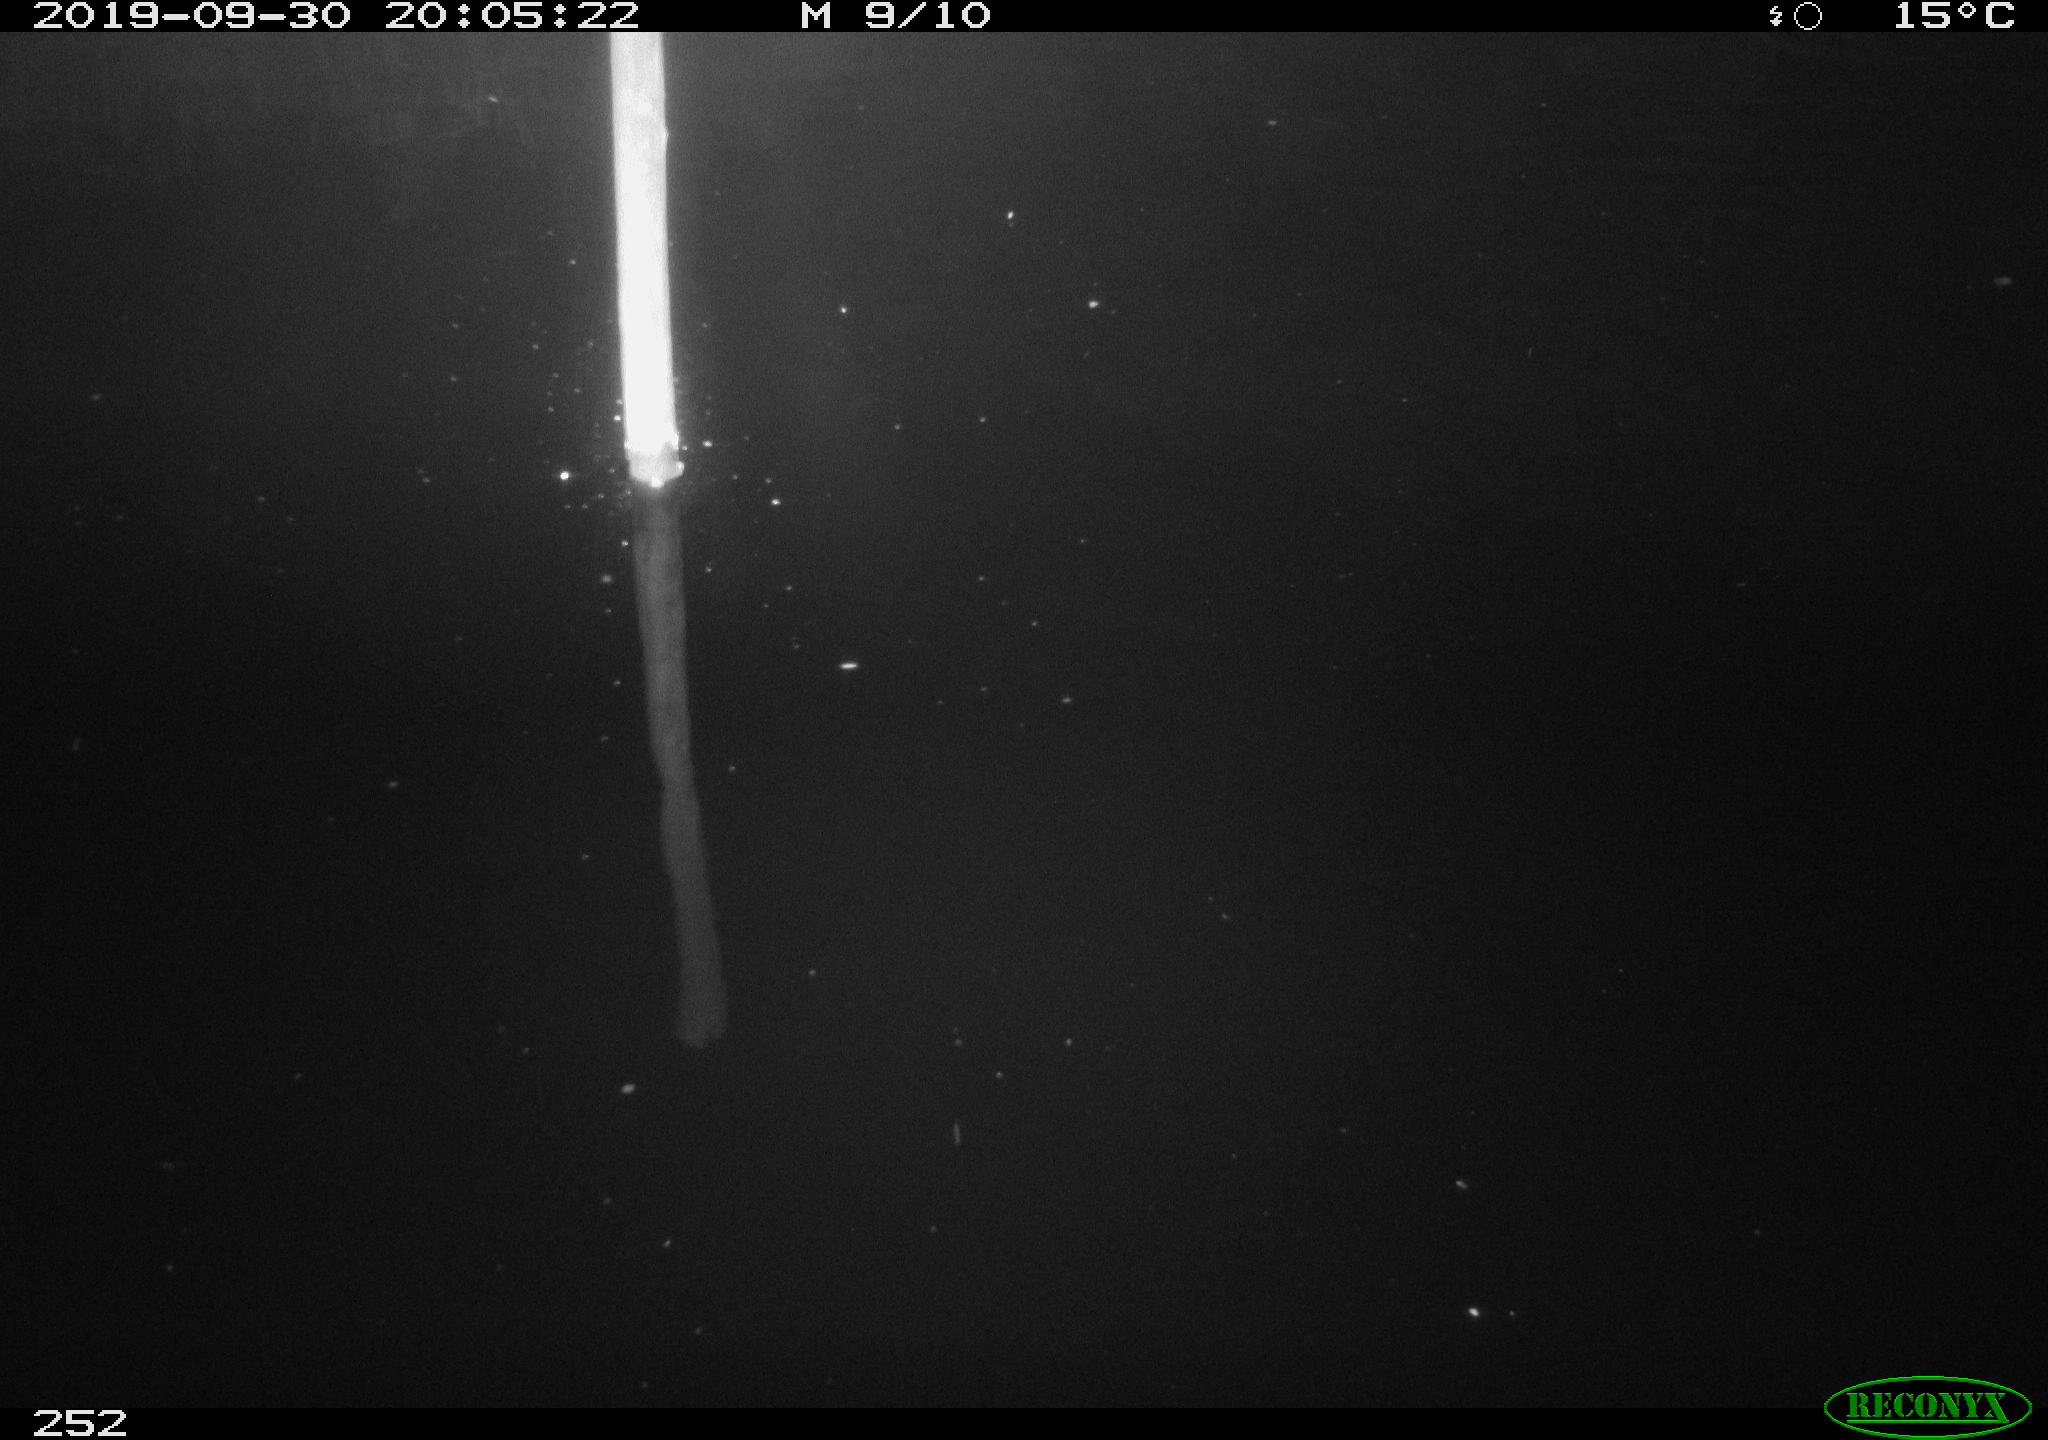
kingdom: Animalia
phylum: Chordata
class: Aves
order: Anseriformes
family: Anatidae
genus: Anas
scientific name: Anas platyrhynchos
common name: Mallard
